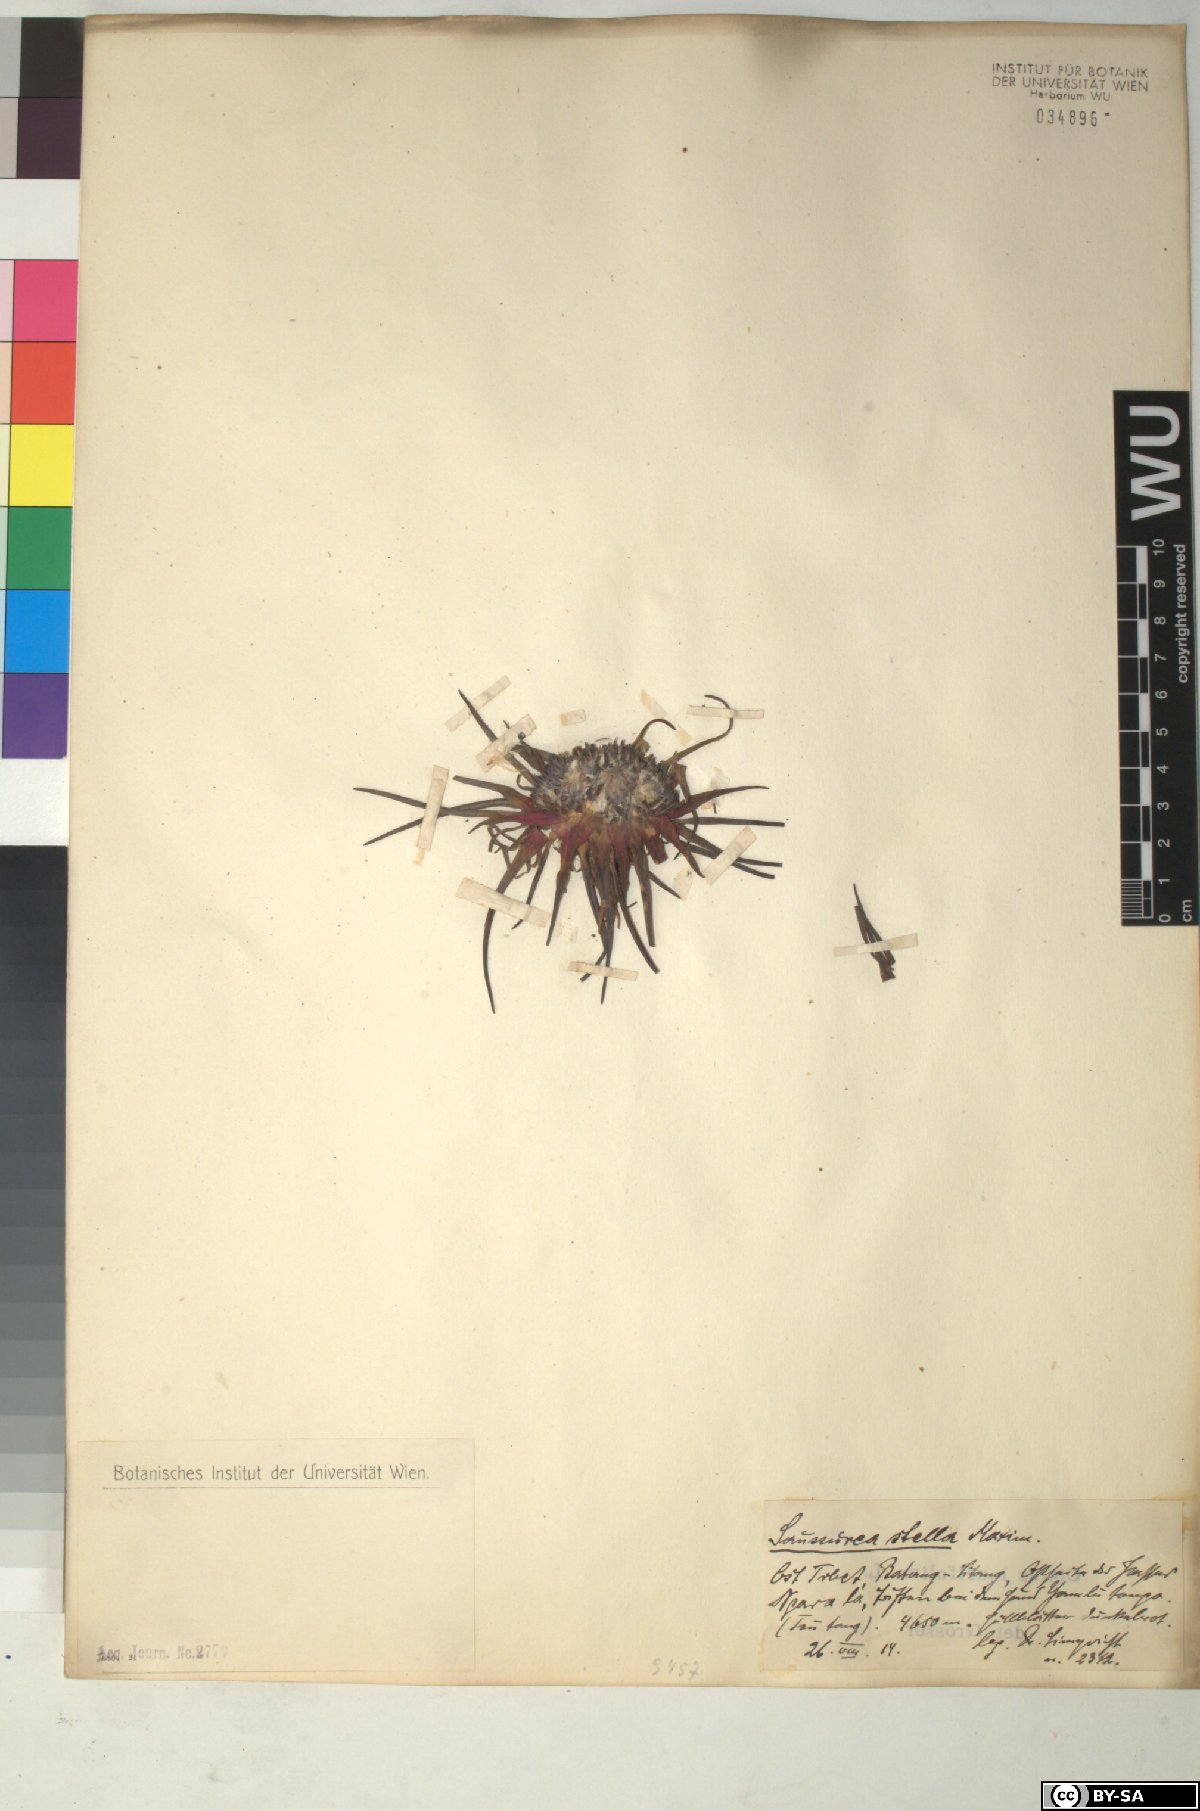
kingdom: Plantae
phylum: Tracheophyta
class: Magnoliopsida
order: Asterales
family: Asteraceae
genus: Saussurea
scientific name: Saussurea stella
